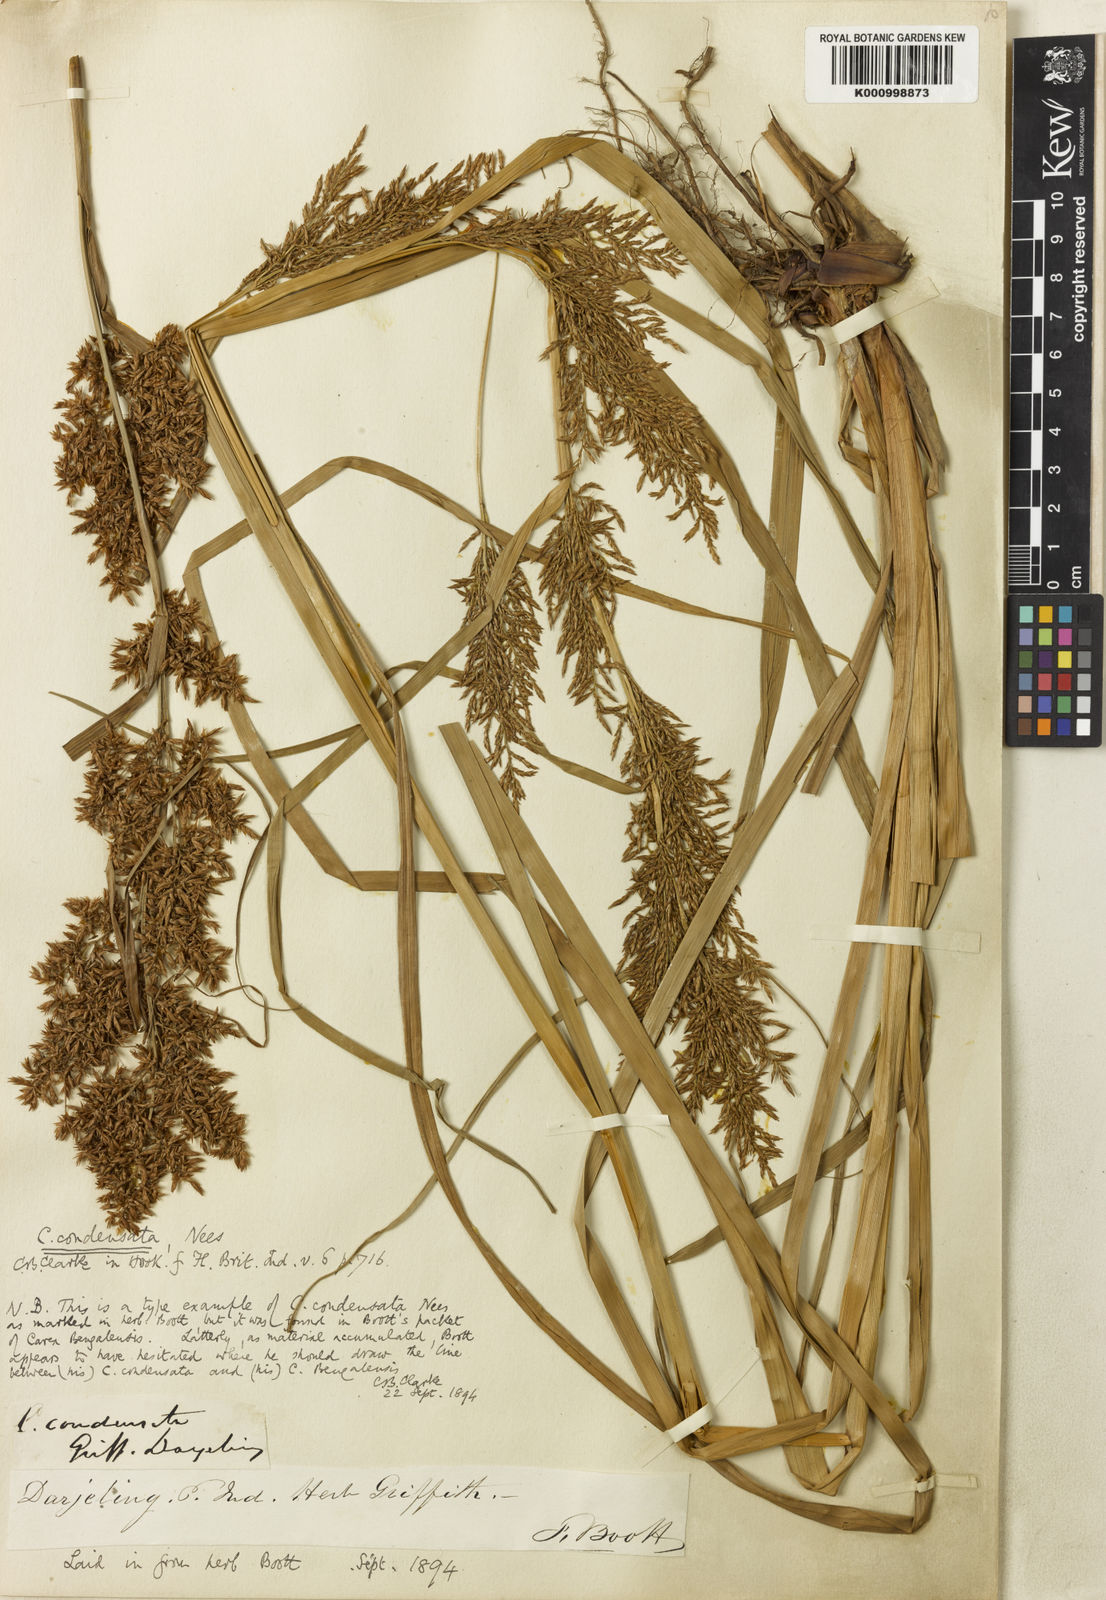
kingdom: Plantae
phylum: Tracheophyta
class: Liliopsida
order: Poales
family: Cyperaceae
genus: Carex
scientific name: Carex condensata
